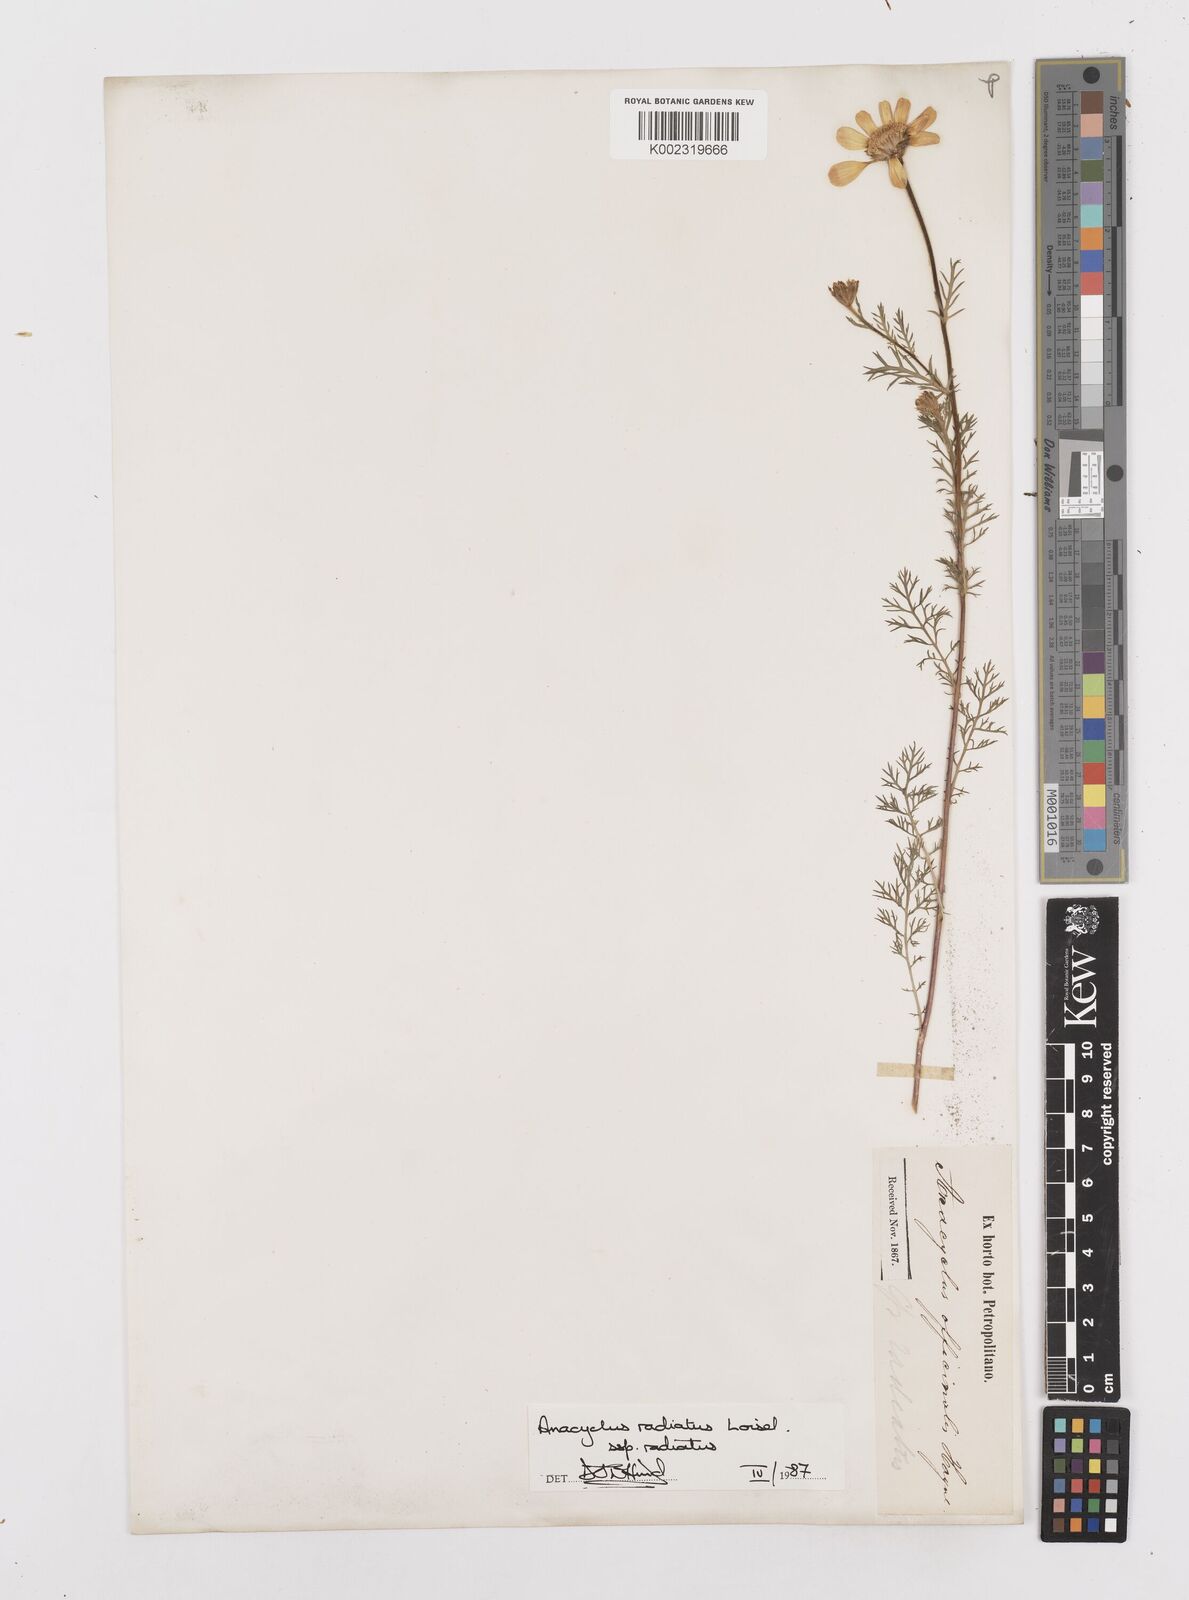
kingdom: Plantae
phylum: Tracheophyta
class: Magnoliopsida
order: Asterales
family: Asteraceae
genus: Anacyclus
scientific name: Anacyclus radiatus
